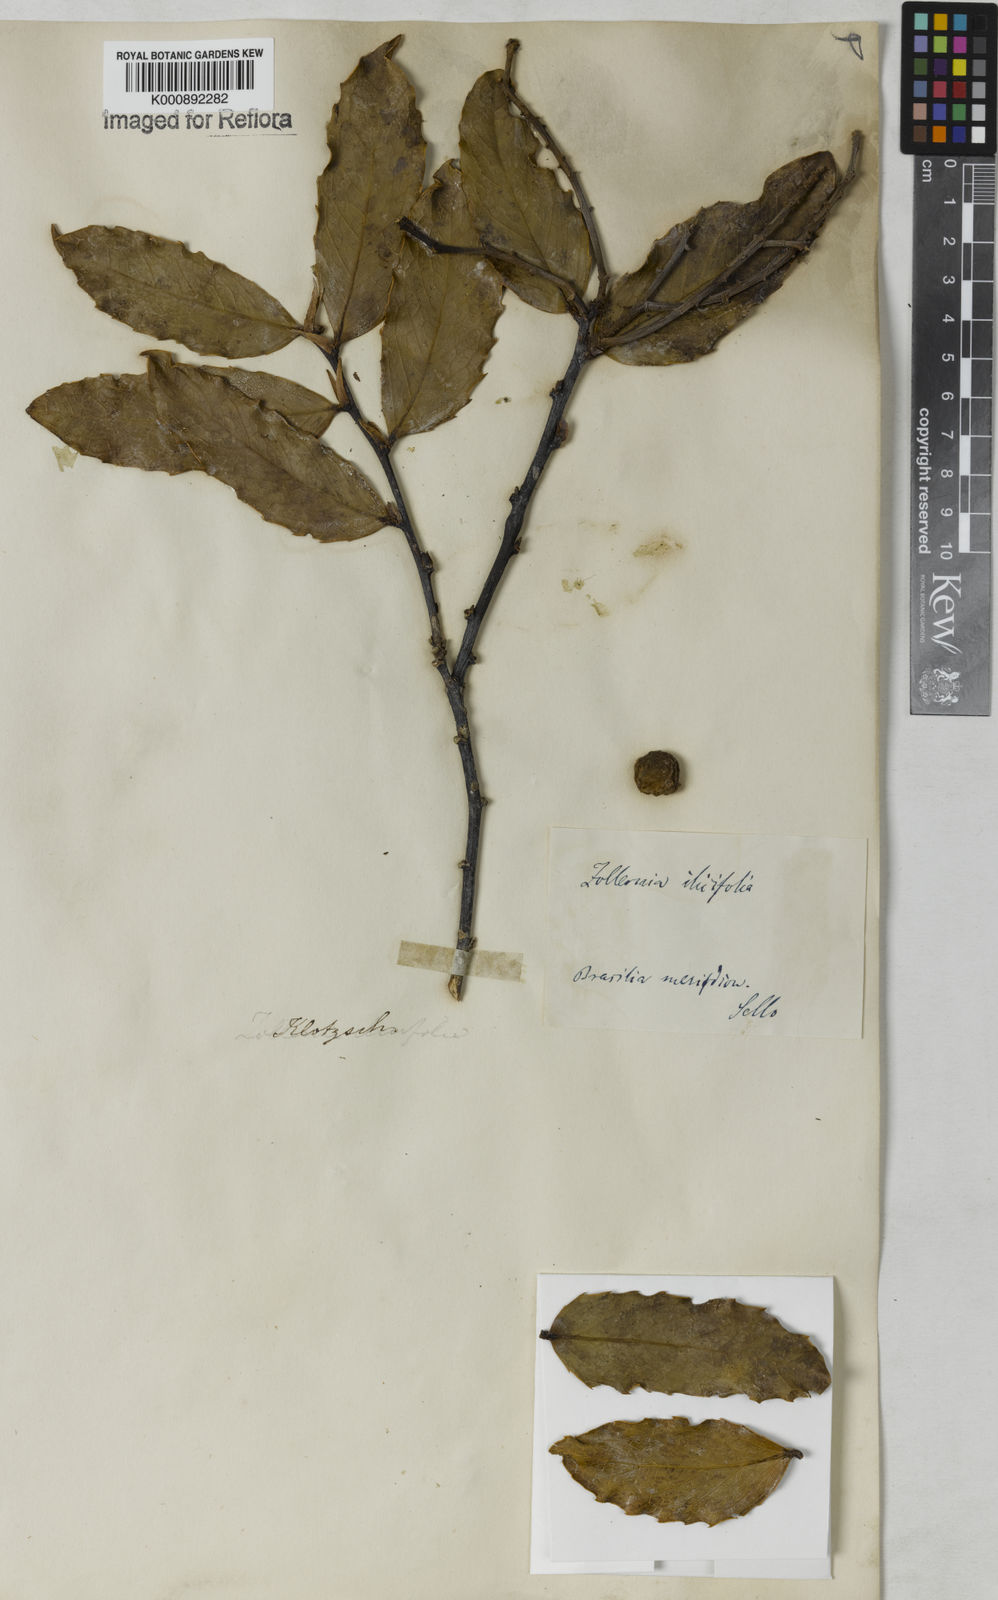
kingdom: Plantae
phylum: Tracheophyta
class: Magnoliopsida
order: Fabales
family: Fabaceae
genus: Zollernia
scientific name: Zollernia ilicifolia
